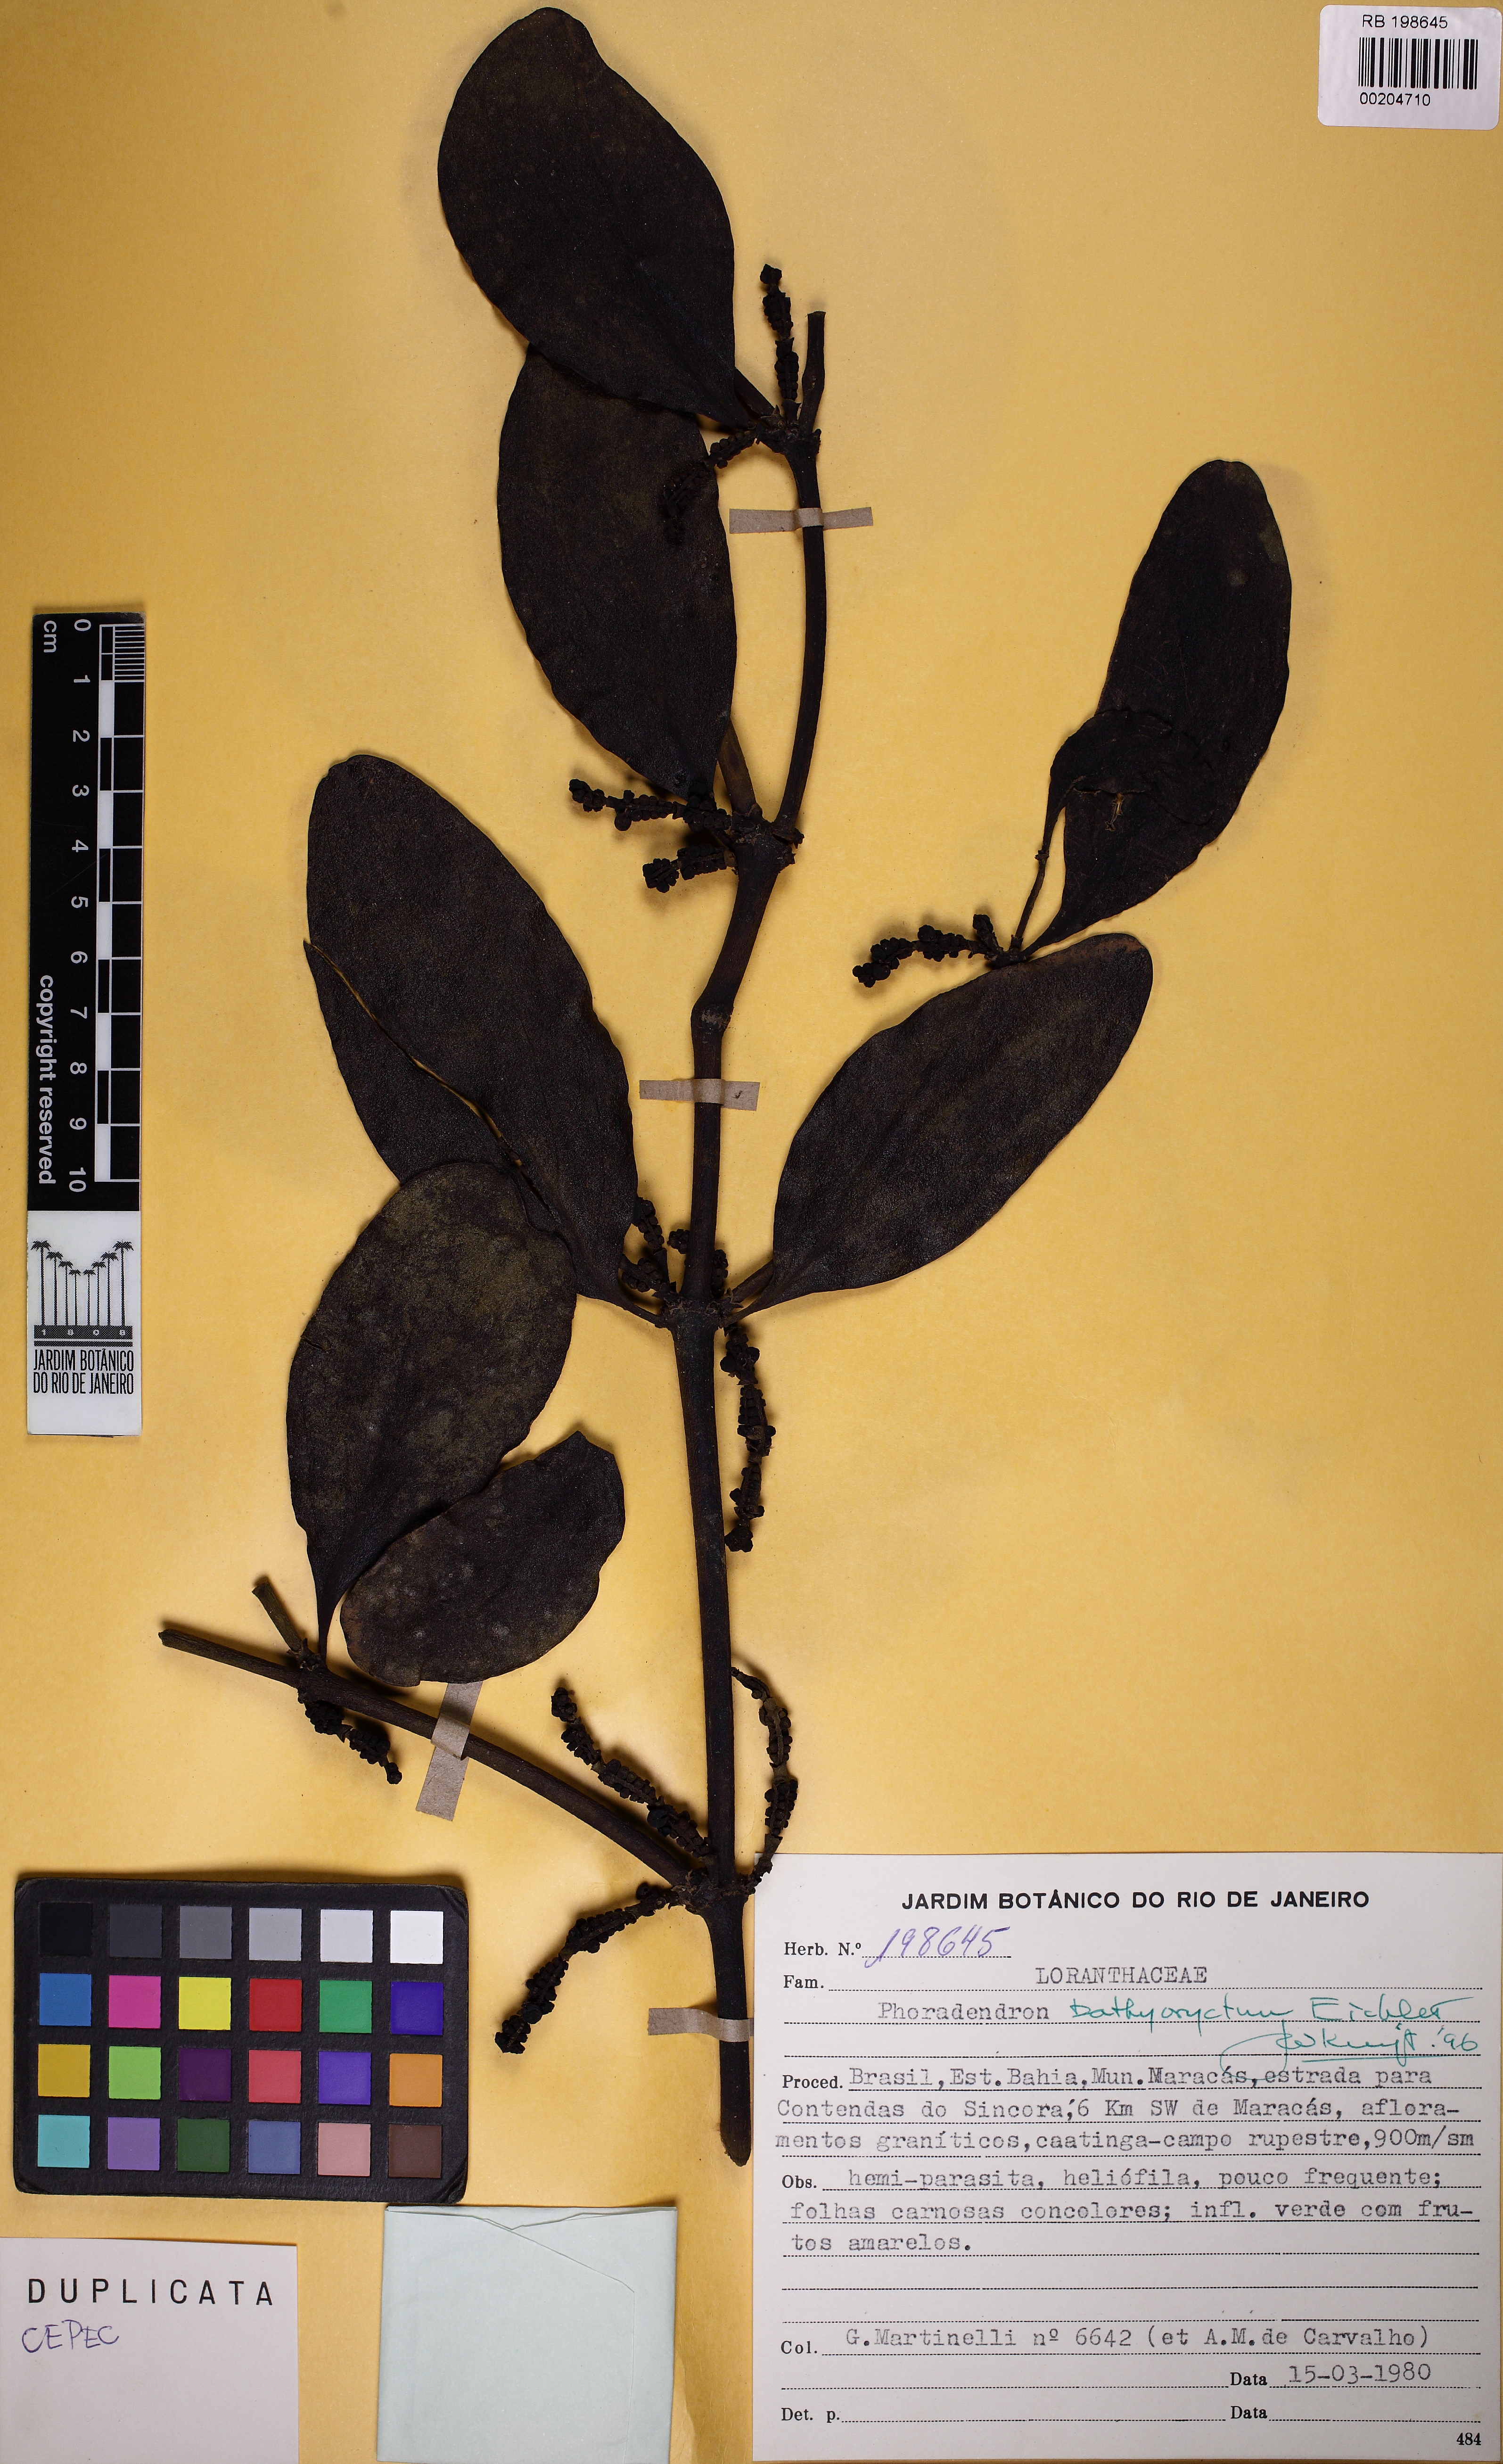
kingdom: Plantae
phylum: Tracheophyta
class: Magnoliopsida
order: Santalales
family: Viscaceae
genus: Phoradendron
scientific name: Phoradendron
